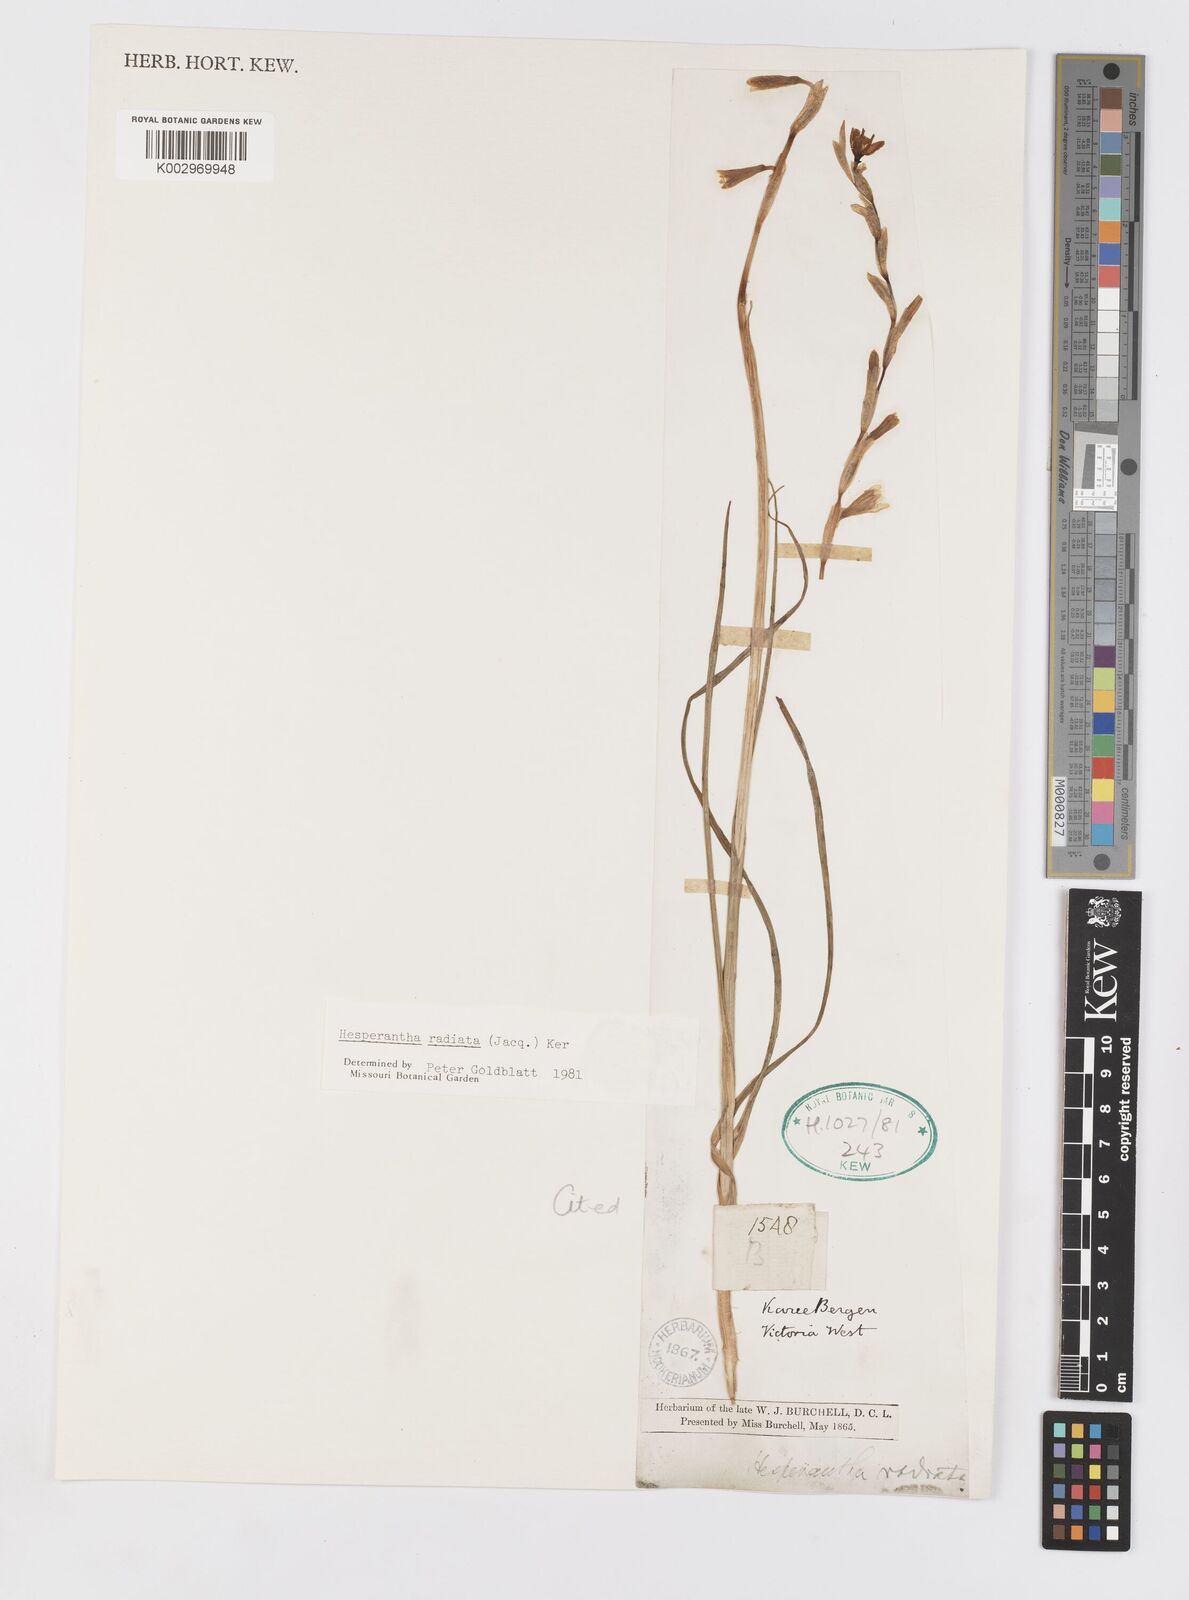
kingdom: Plantae
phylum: Tracheophyta
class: Liliopsida
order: Asparagales
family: Iridaceae
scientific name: Iridaceae
